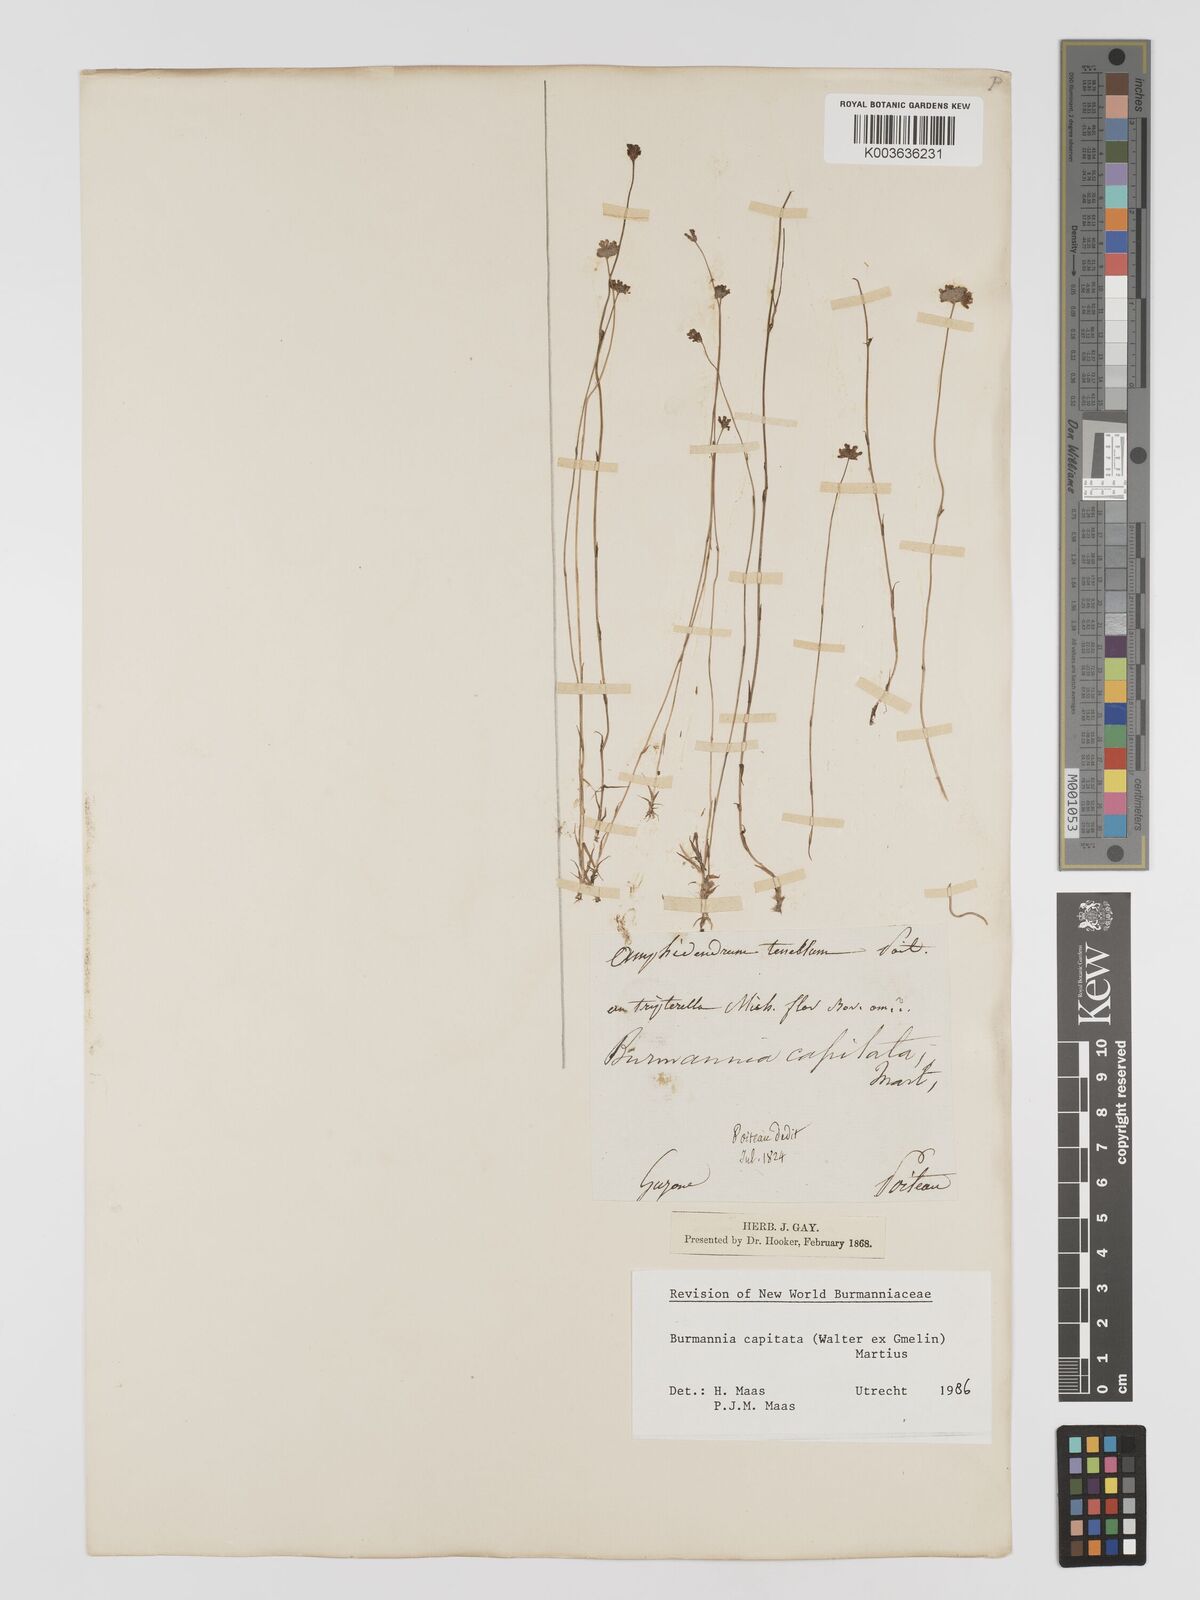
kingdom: Plantae
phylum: Tracheophyta
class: Liliopsida
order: Dioscoreales
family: Burmanniaceae
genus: Burmannia
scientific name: Burmannia capitata
